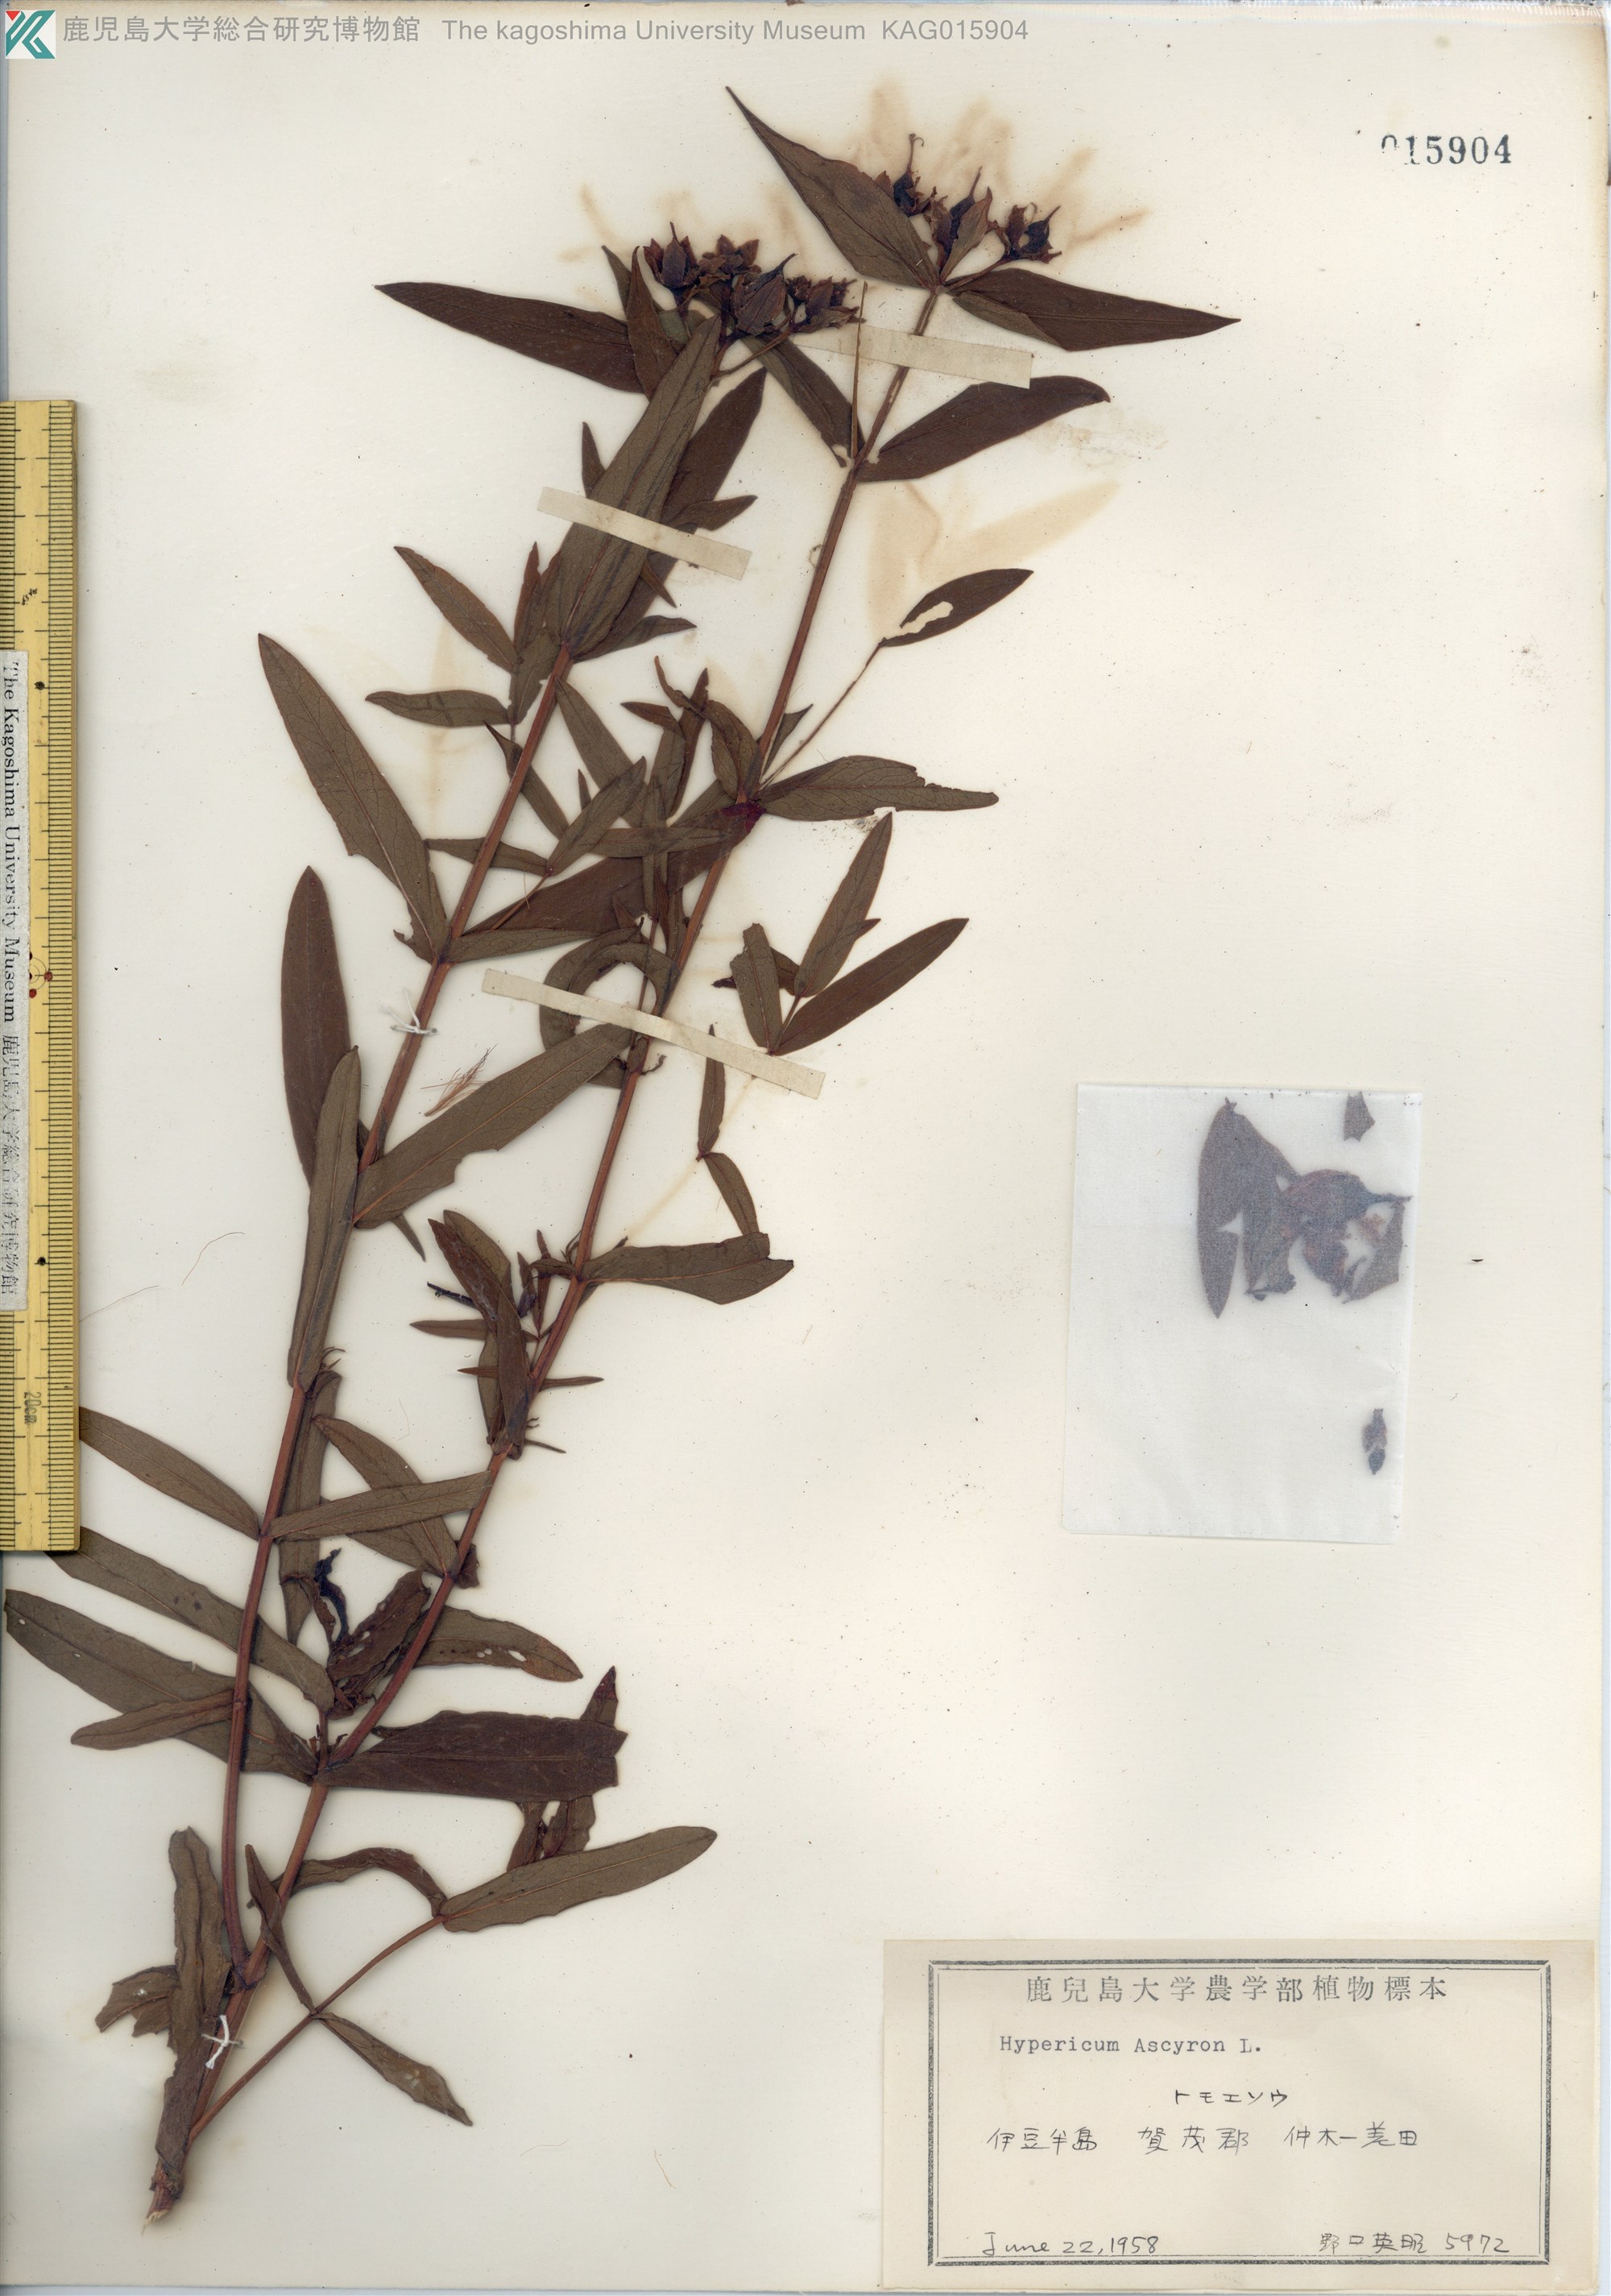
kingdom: Plantae
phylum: Tracheophyta
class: Magnoliopsida
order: Malpighiales
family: Hypericaceae
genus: Hypericum
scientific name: Hypericum ascyron
